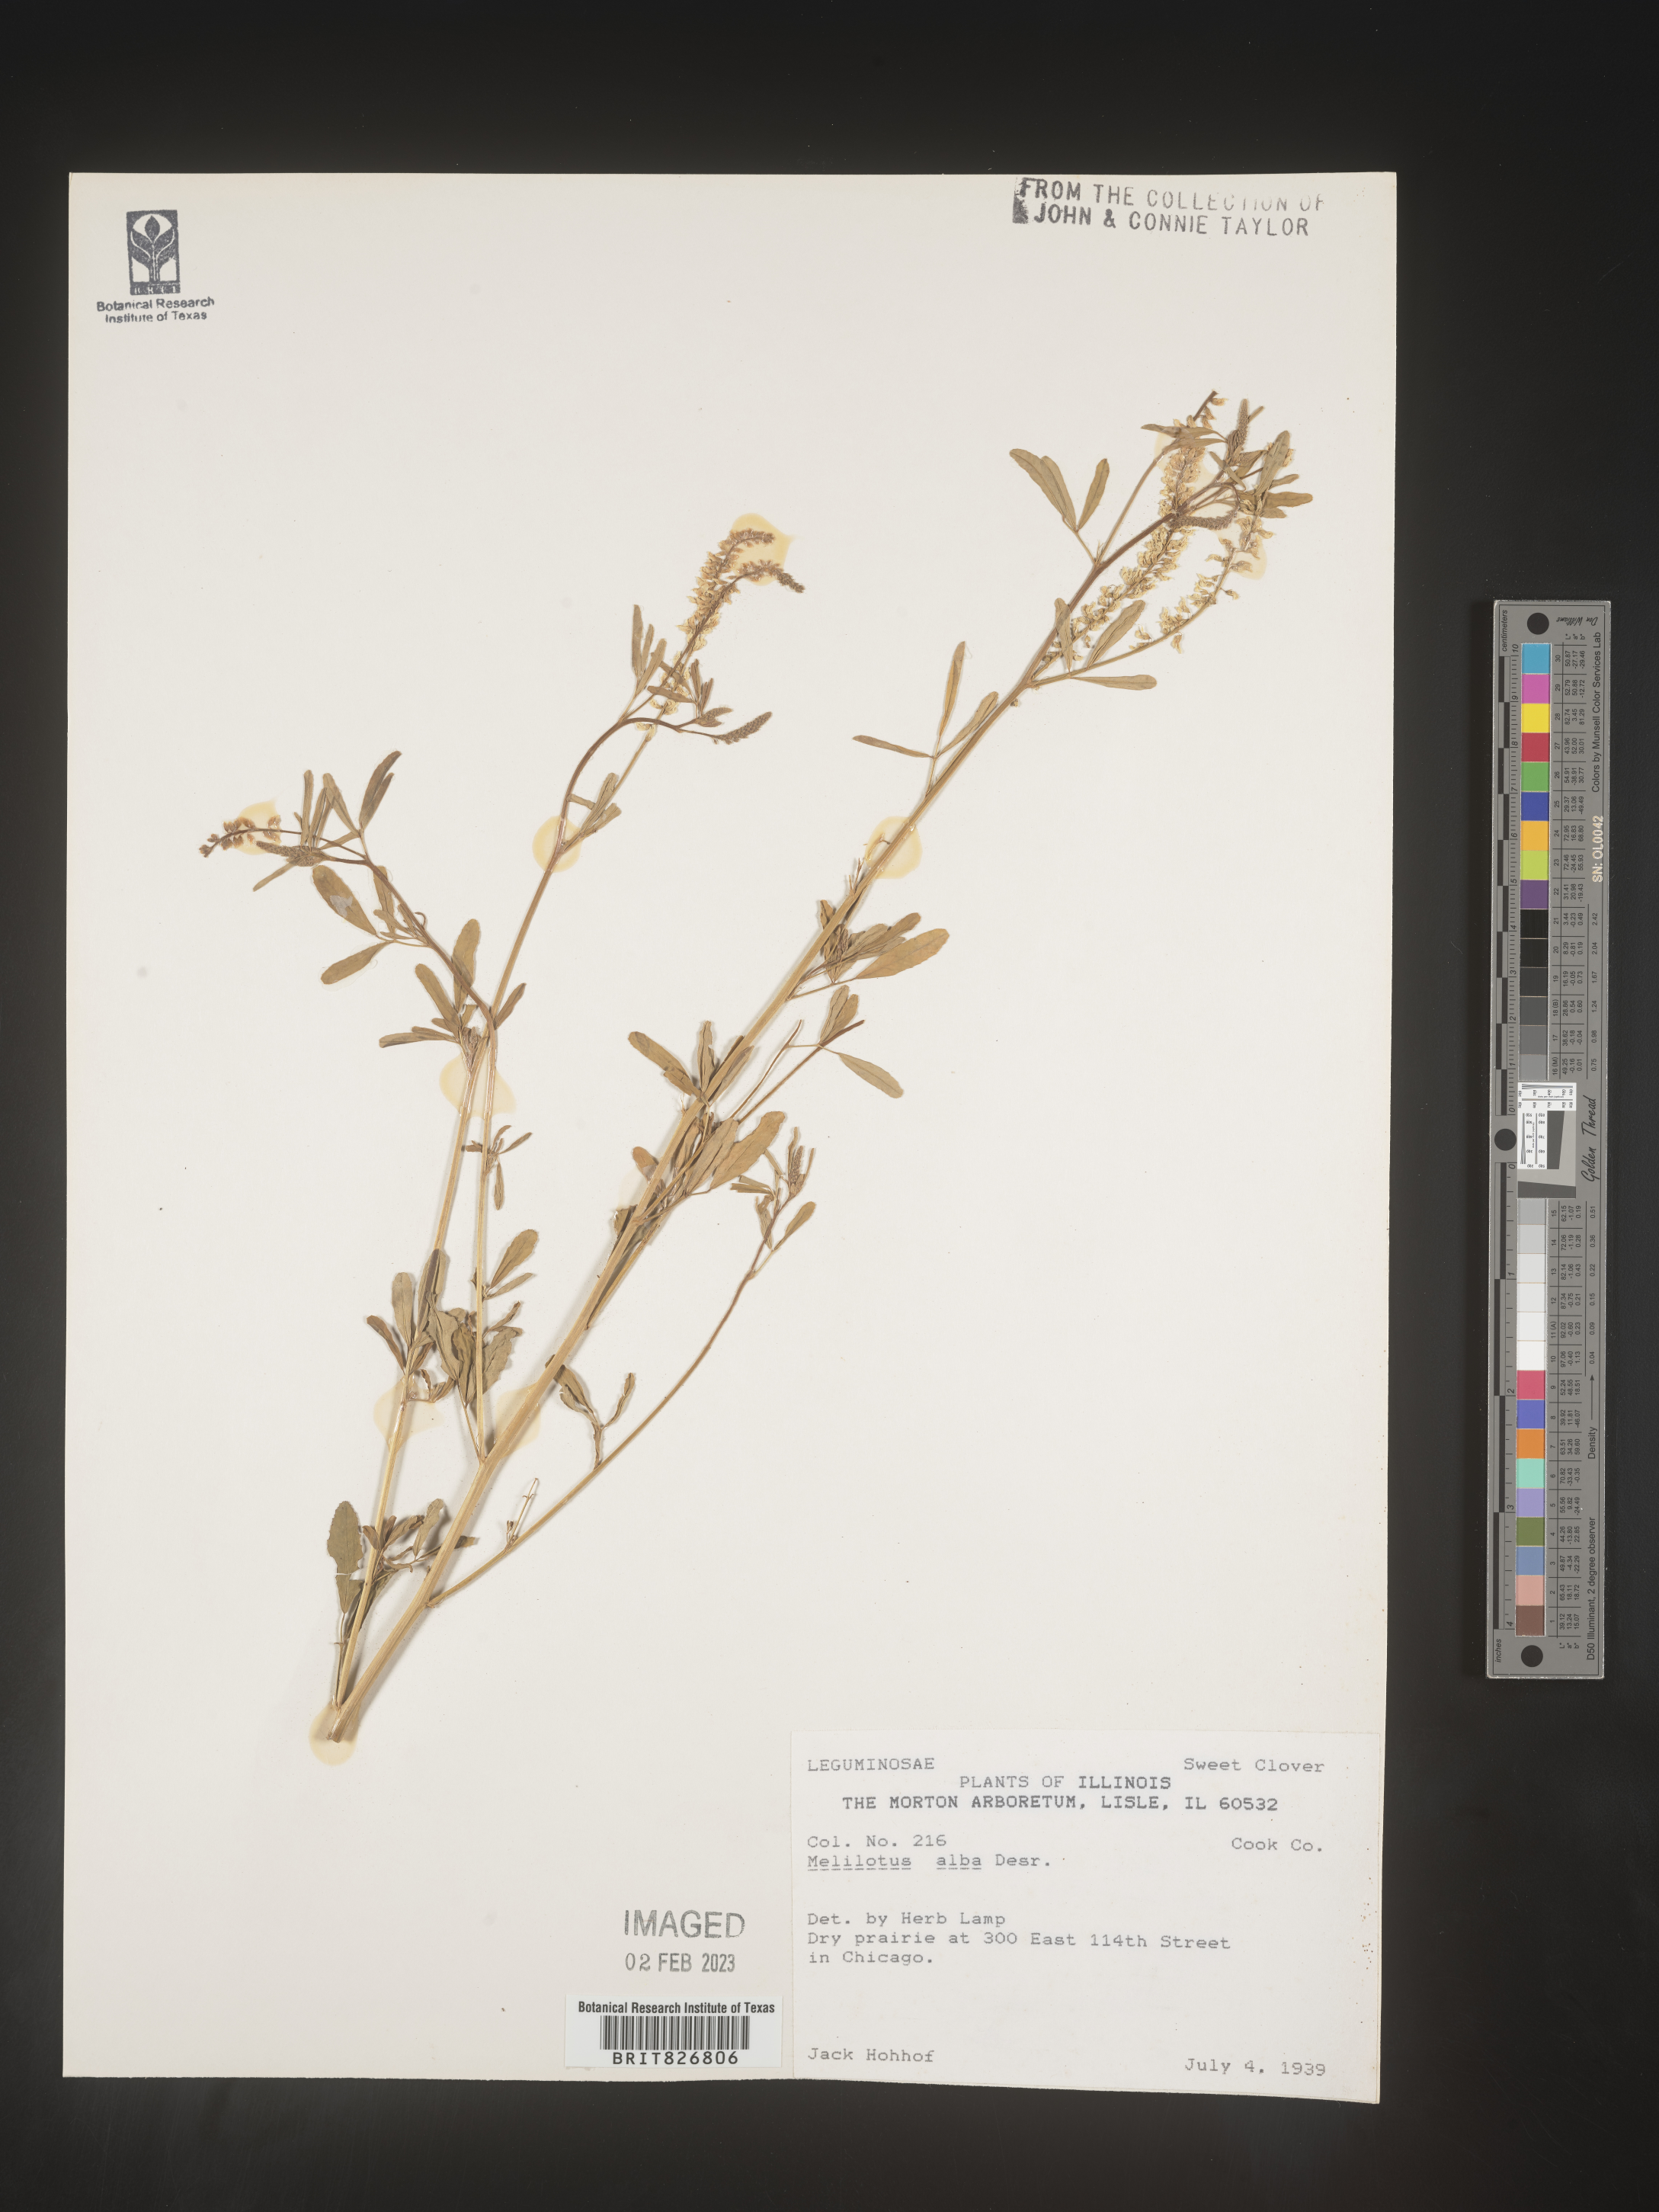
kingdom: Plantae
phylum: Tracheophyta
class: Magnoliopsida
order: Fabales
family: Fabaceae
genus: Melilotus
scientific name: Melilotus albus
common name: White melilot
